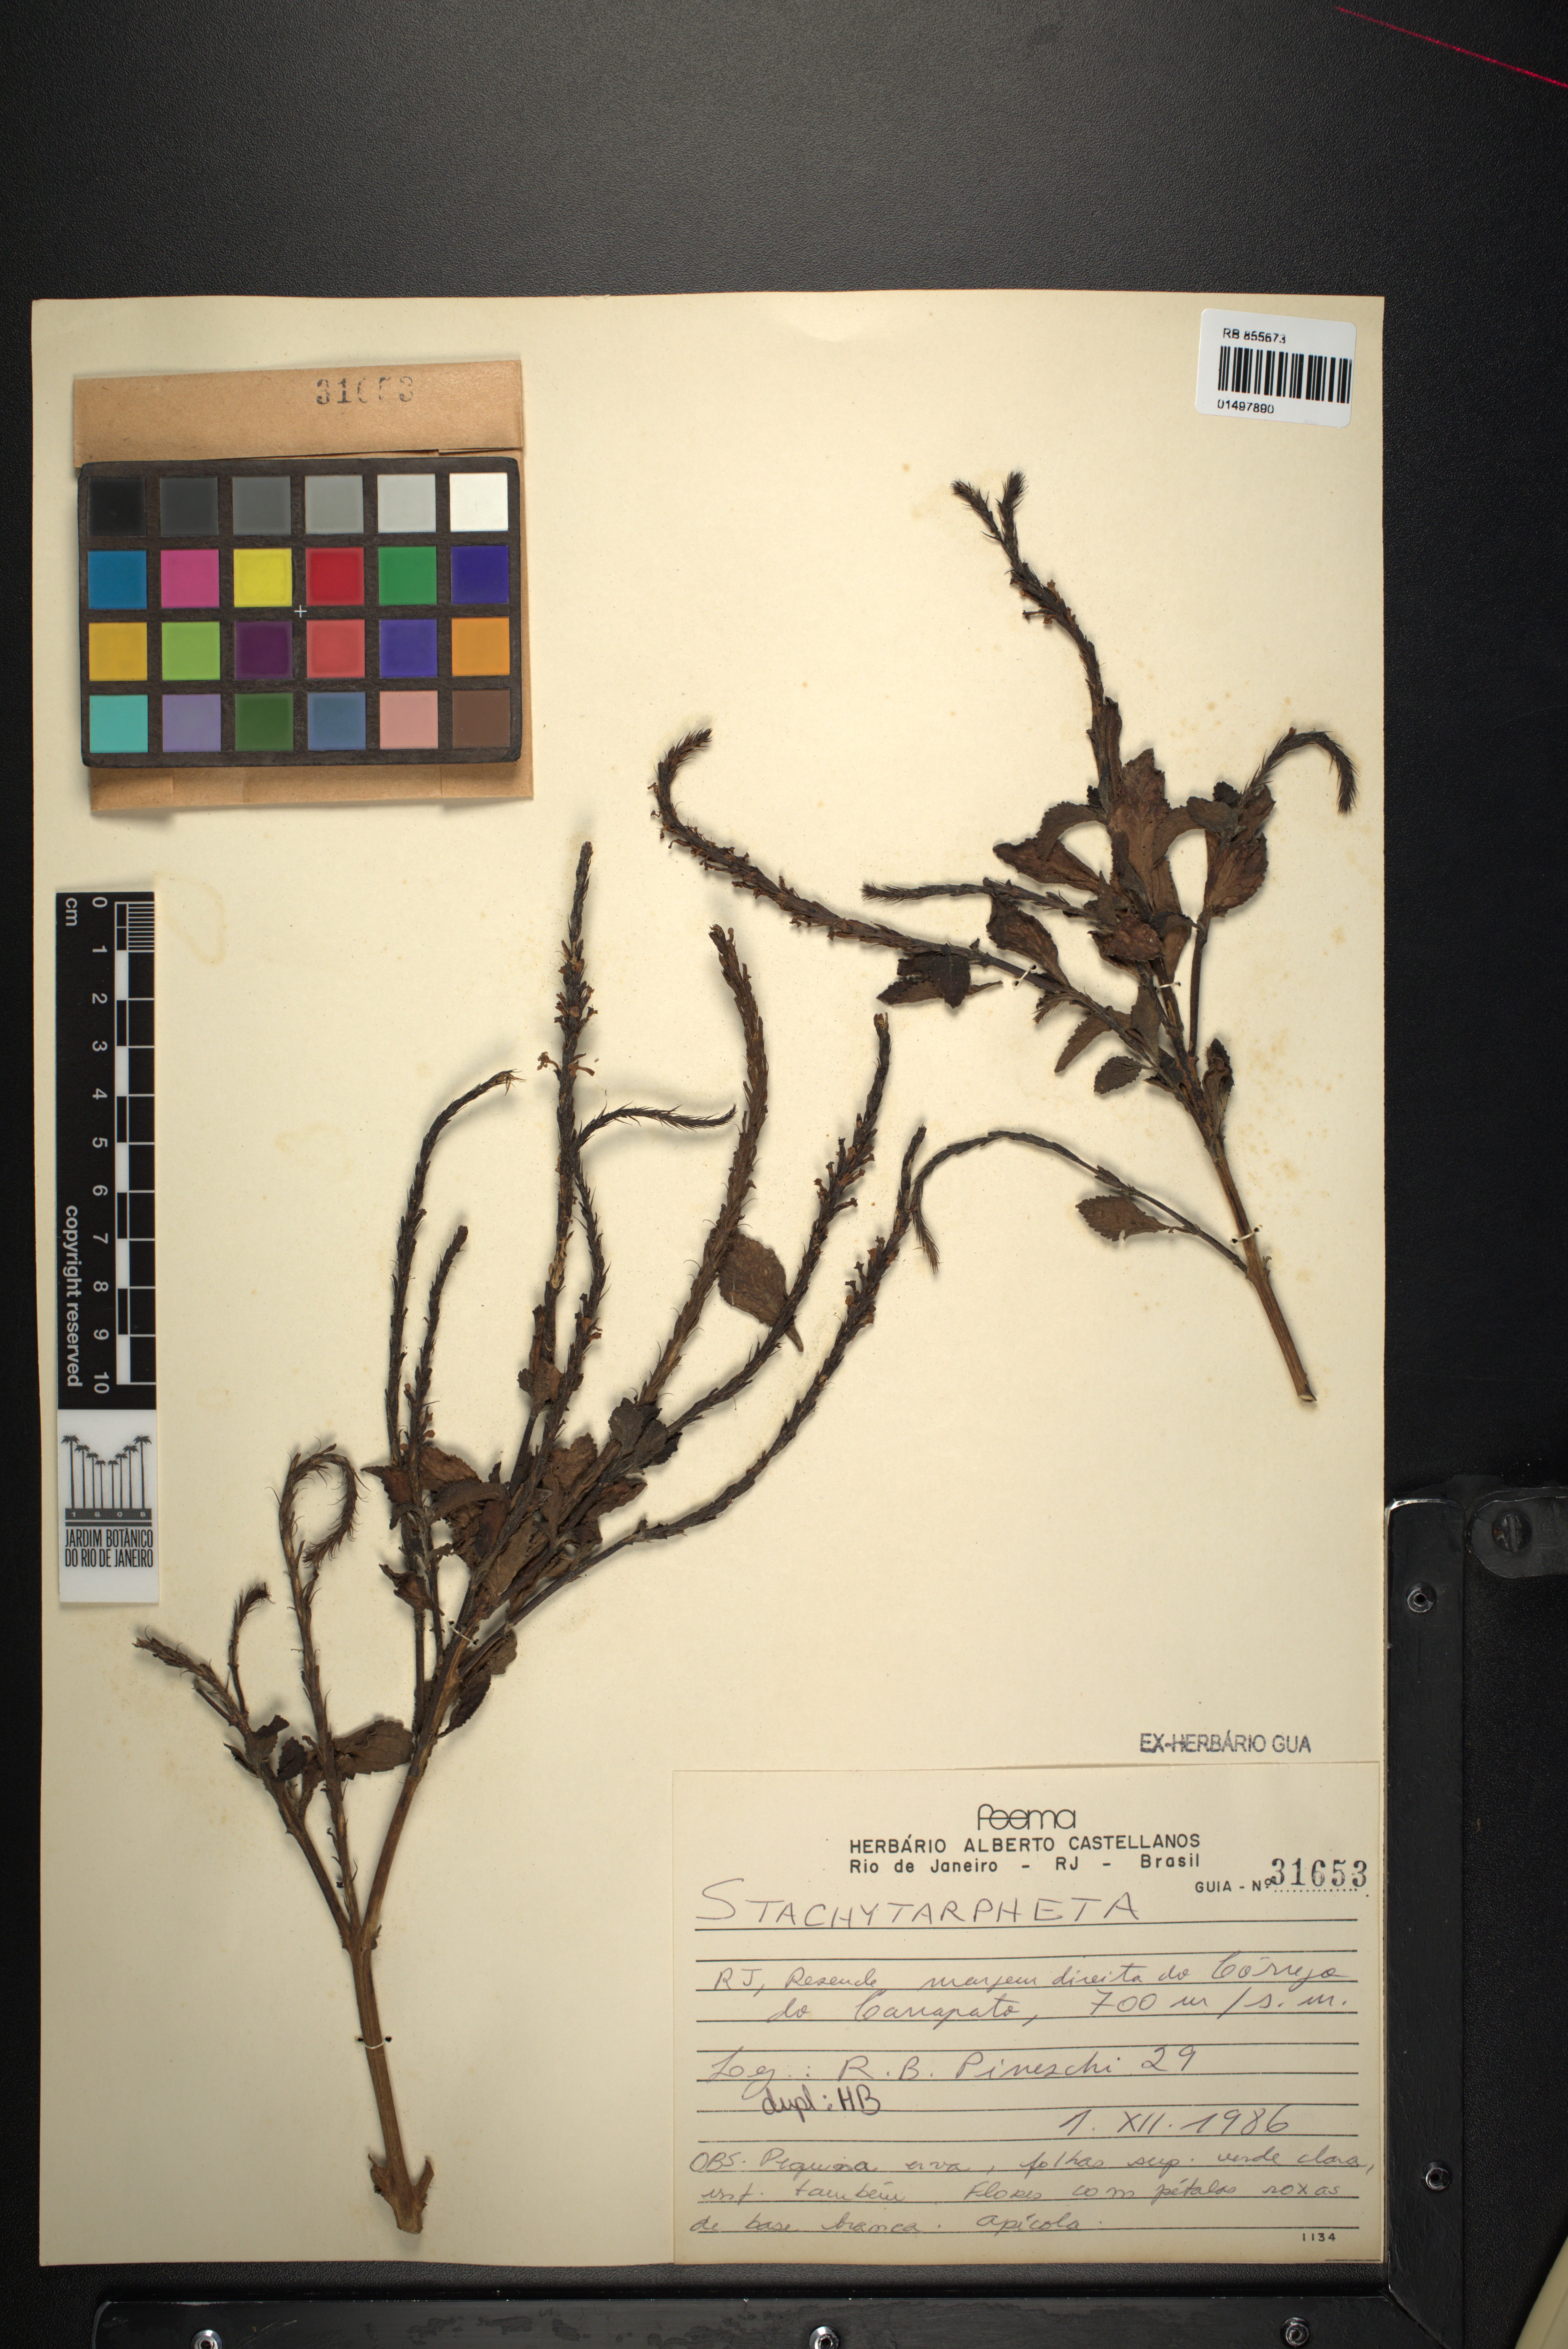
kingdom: Plantae
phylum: Tracheophyta
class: Magnoliopsida
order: Lamiales
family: Verbenaceae
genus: Stachytarpheta
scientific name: Stachytarpheta
